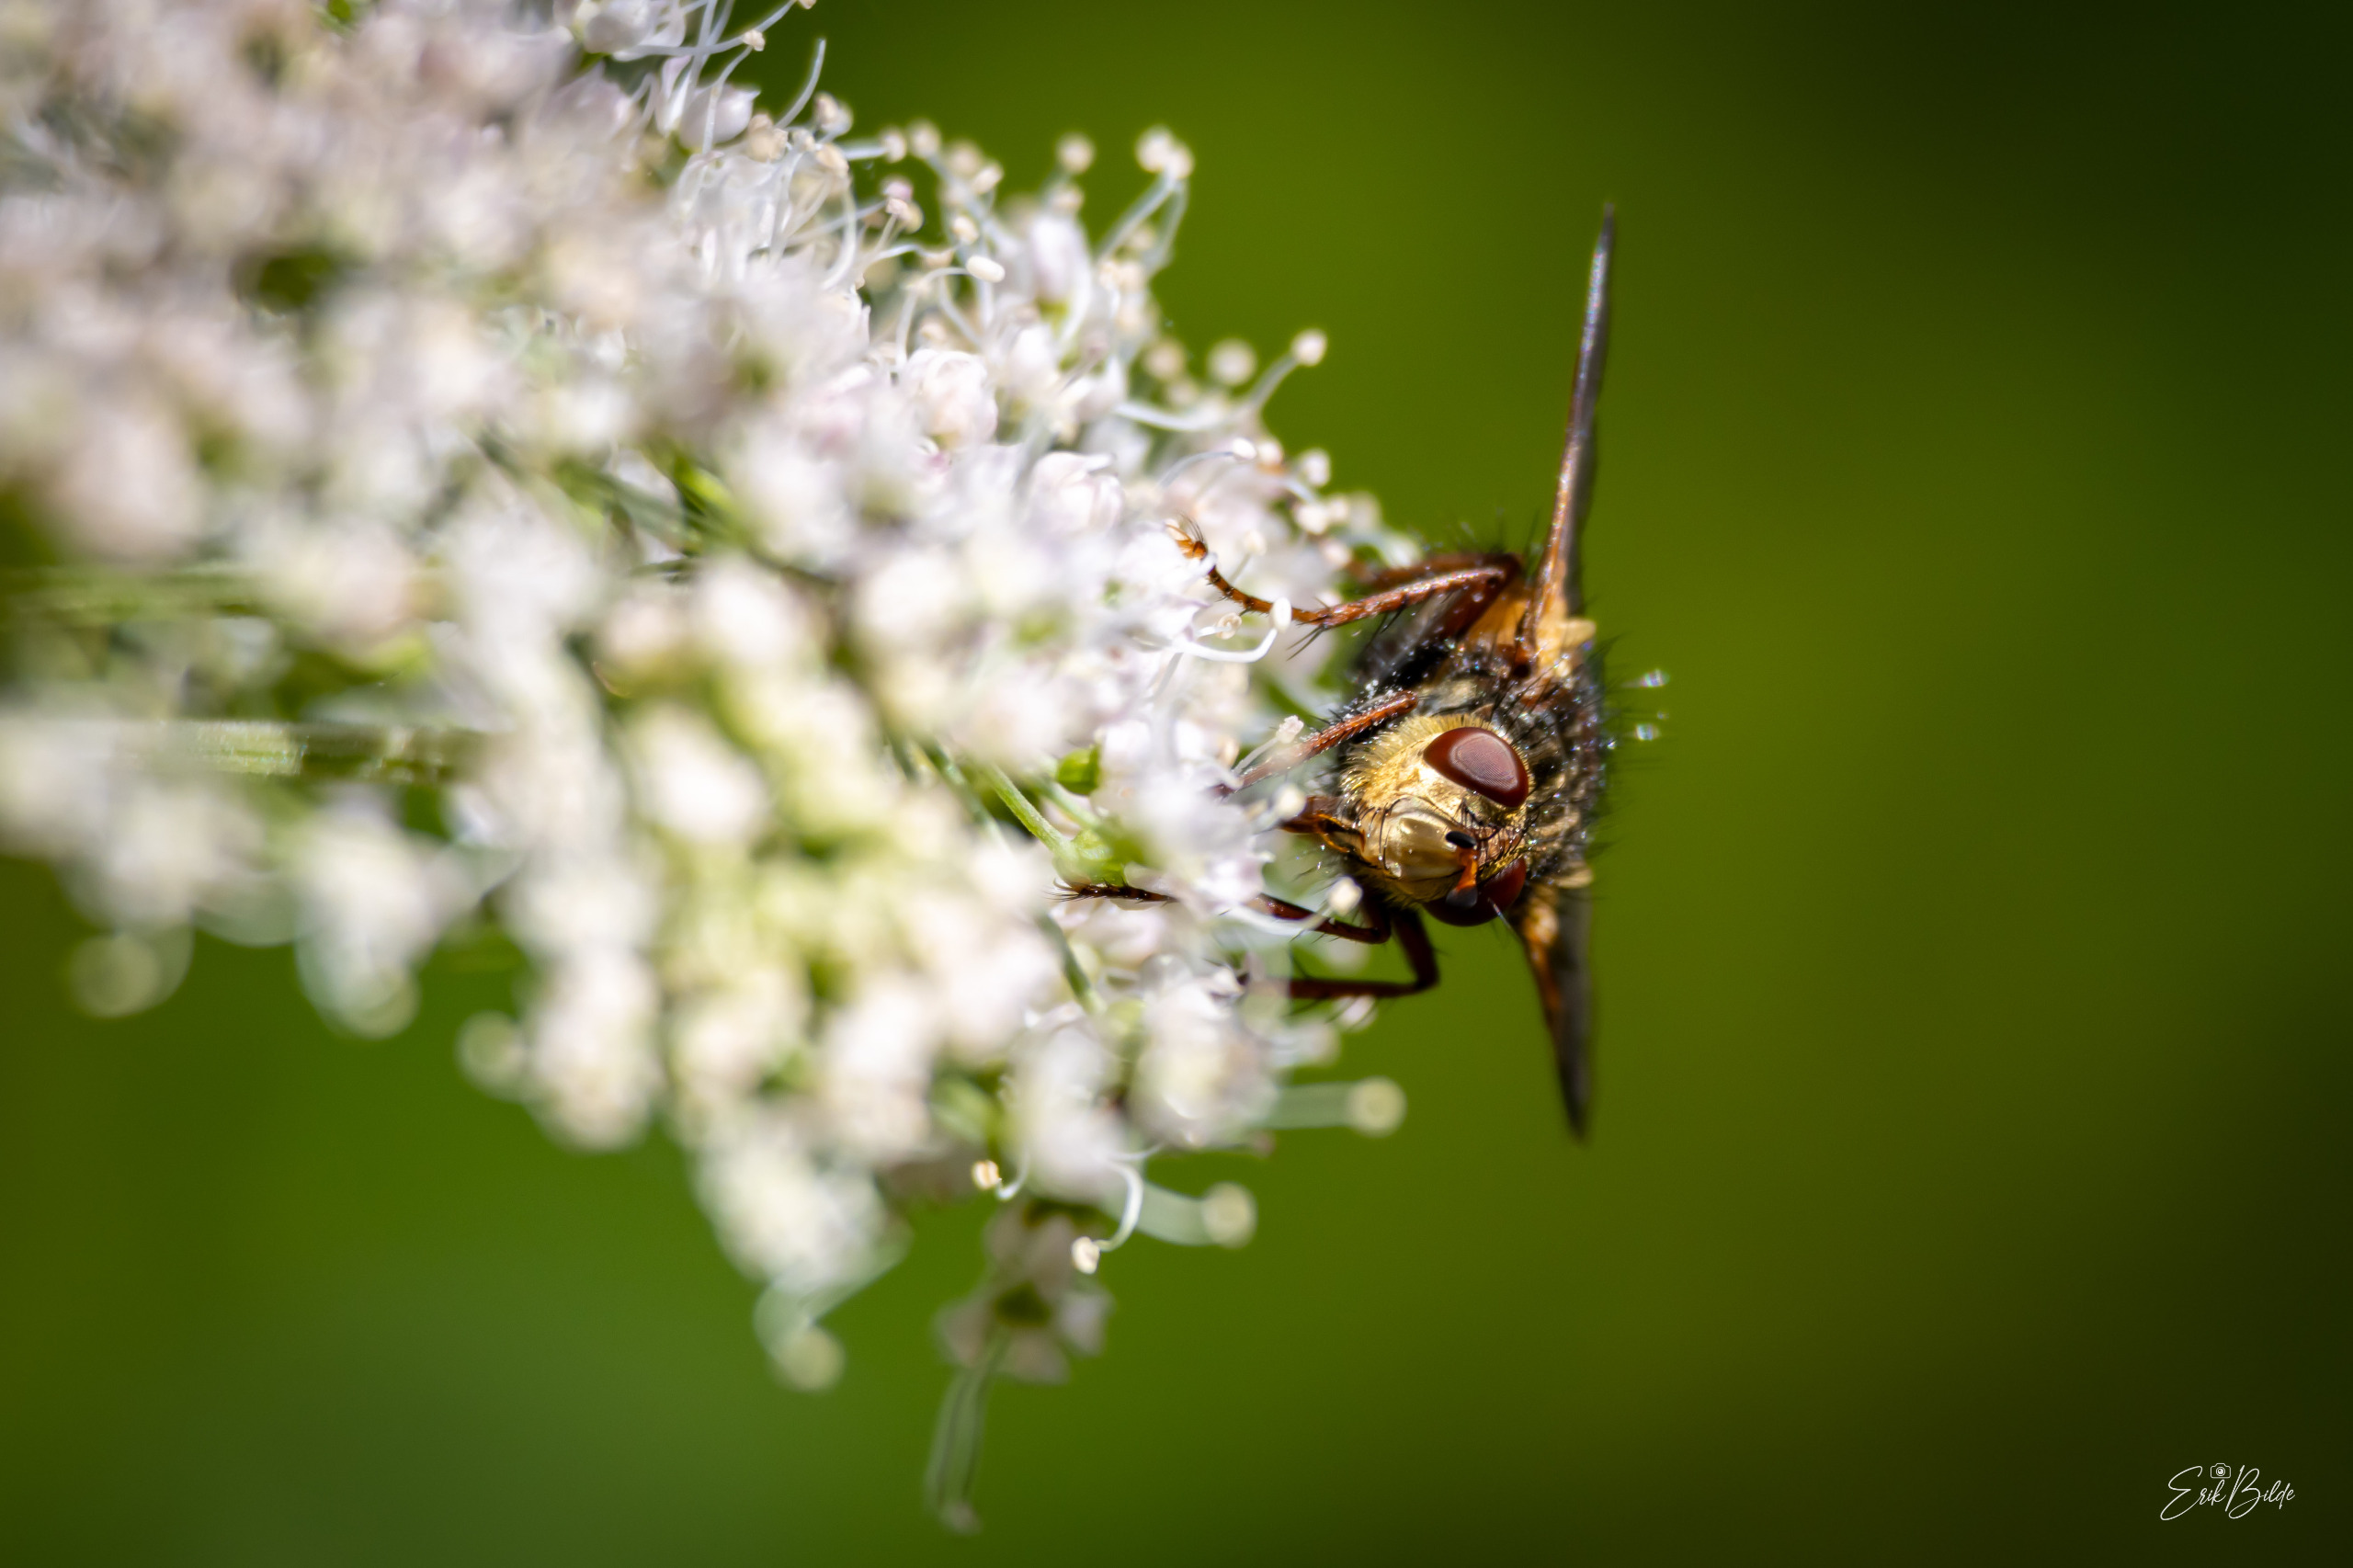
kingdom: Animalia
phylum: Arthropoda
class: Insecta
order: Diptera
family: Tachinidae
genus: Tachina
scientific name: Tachina fera
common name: Mellemfluen oskar
